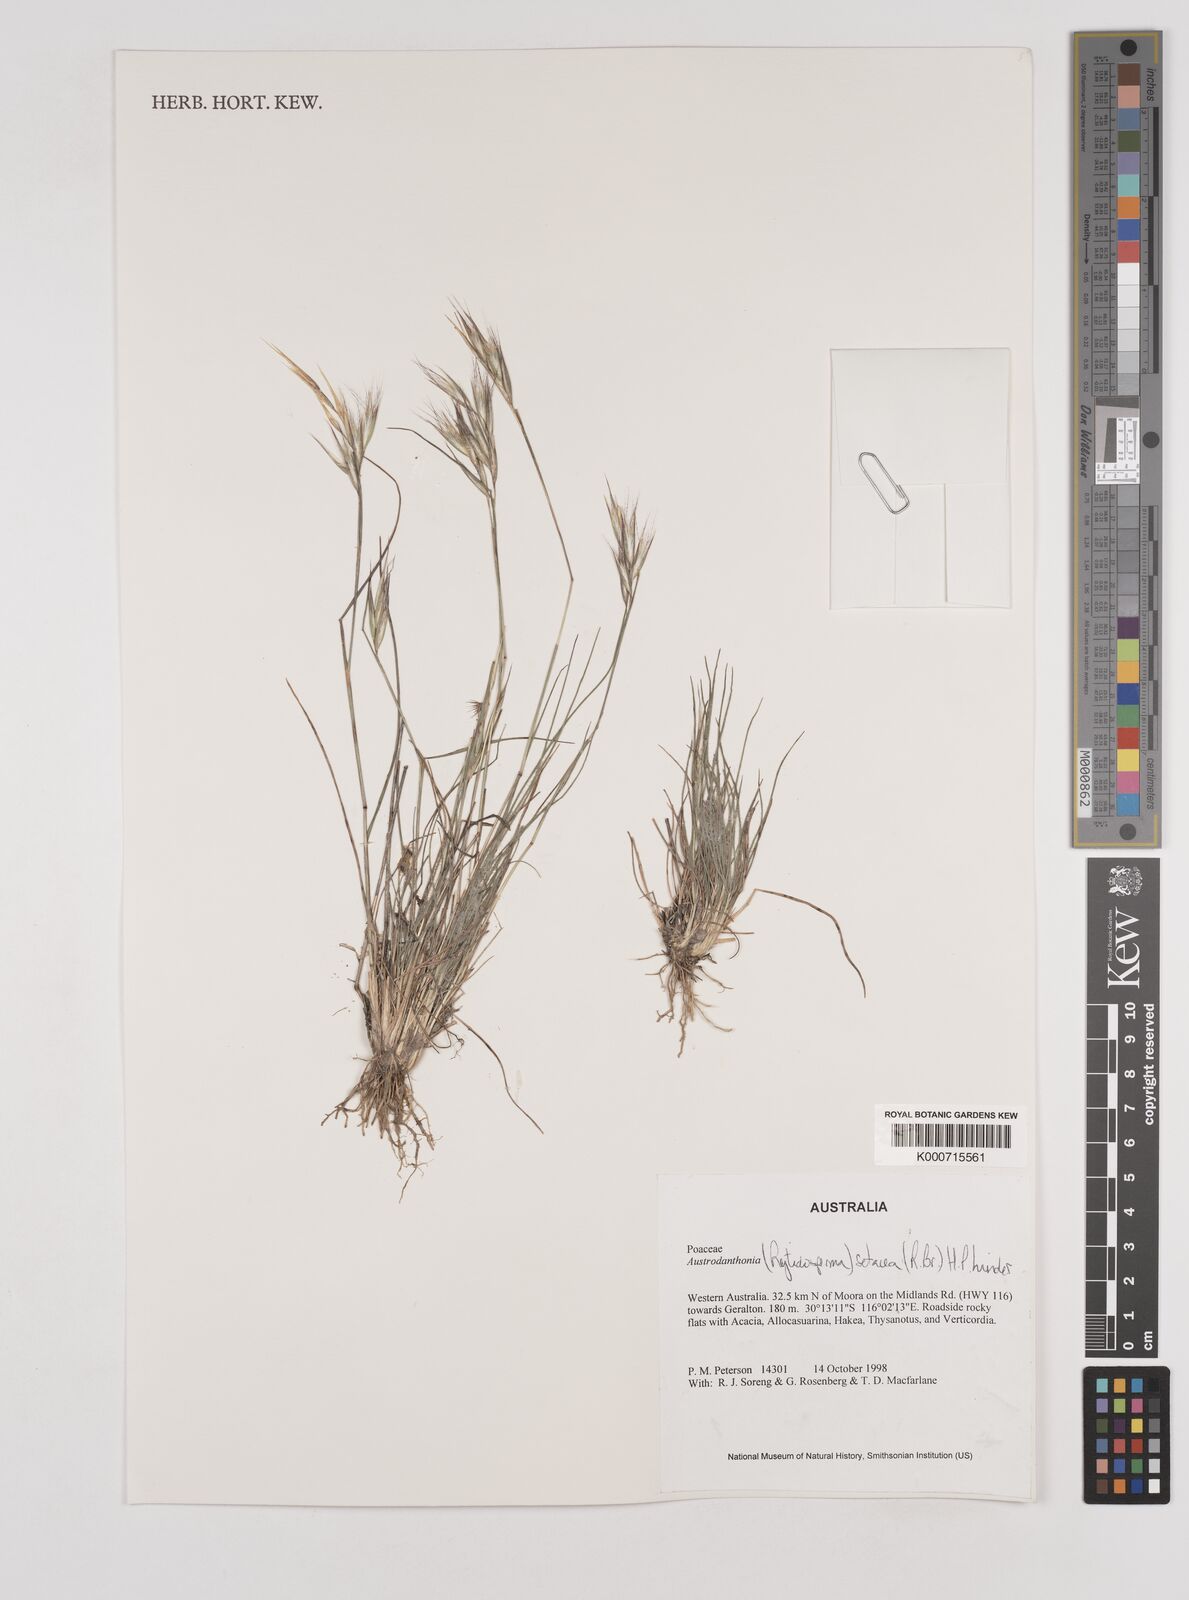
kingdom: Plantae
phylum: Tracheophyta
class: Liliopsida
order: Poales
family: Poaceae
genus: Rytidosperma
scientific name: Rytidosperma setaceum
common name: Small-flower wallaby grass
